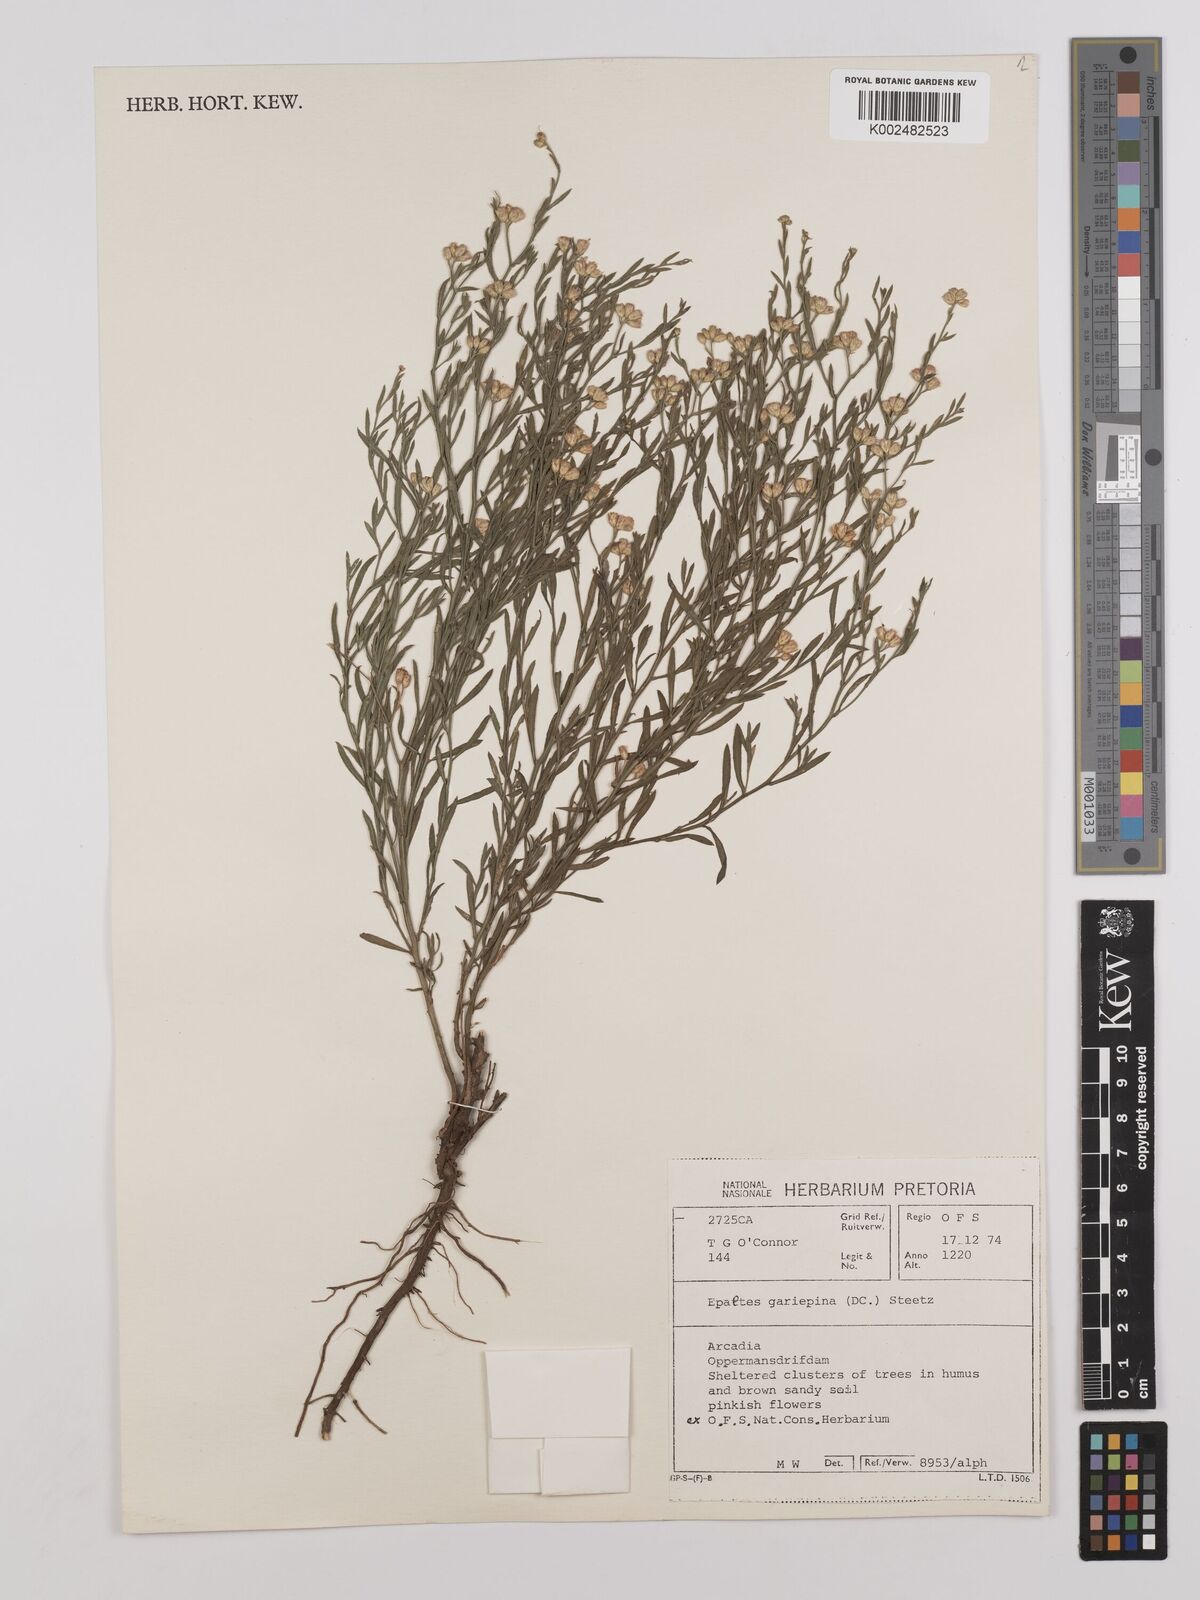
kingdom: Plantae
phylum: Tracheophyta
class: Magnoliopsida
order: Asterales
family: Asteraceae
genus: Litogyne
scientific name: Litogyne gariepina
